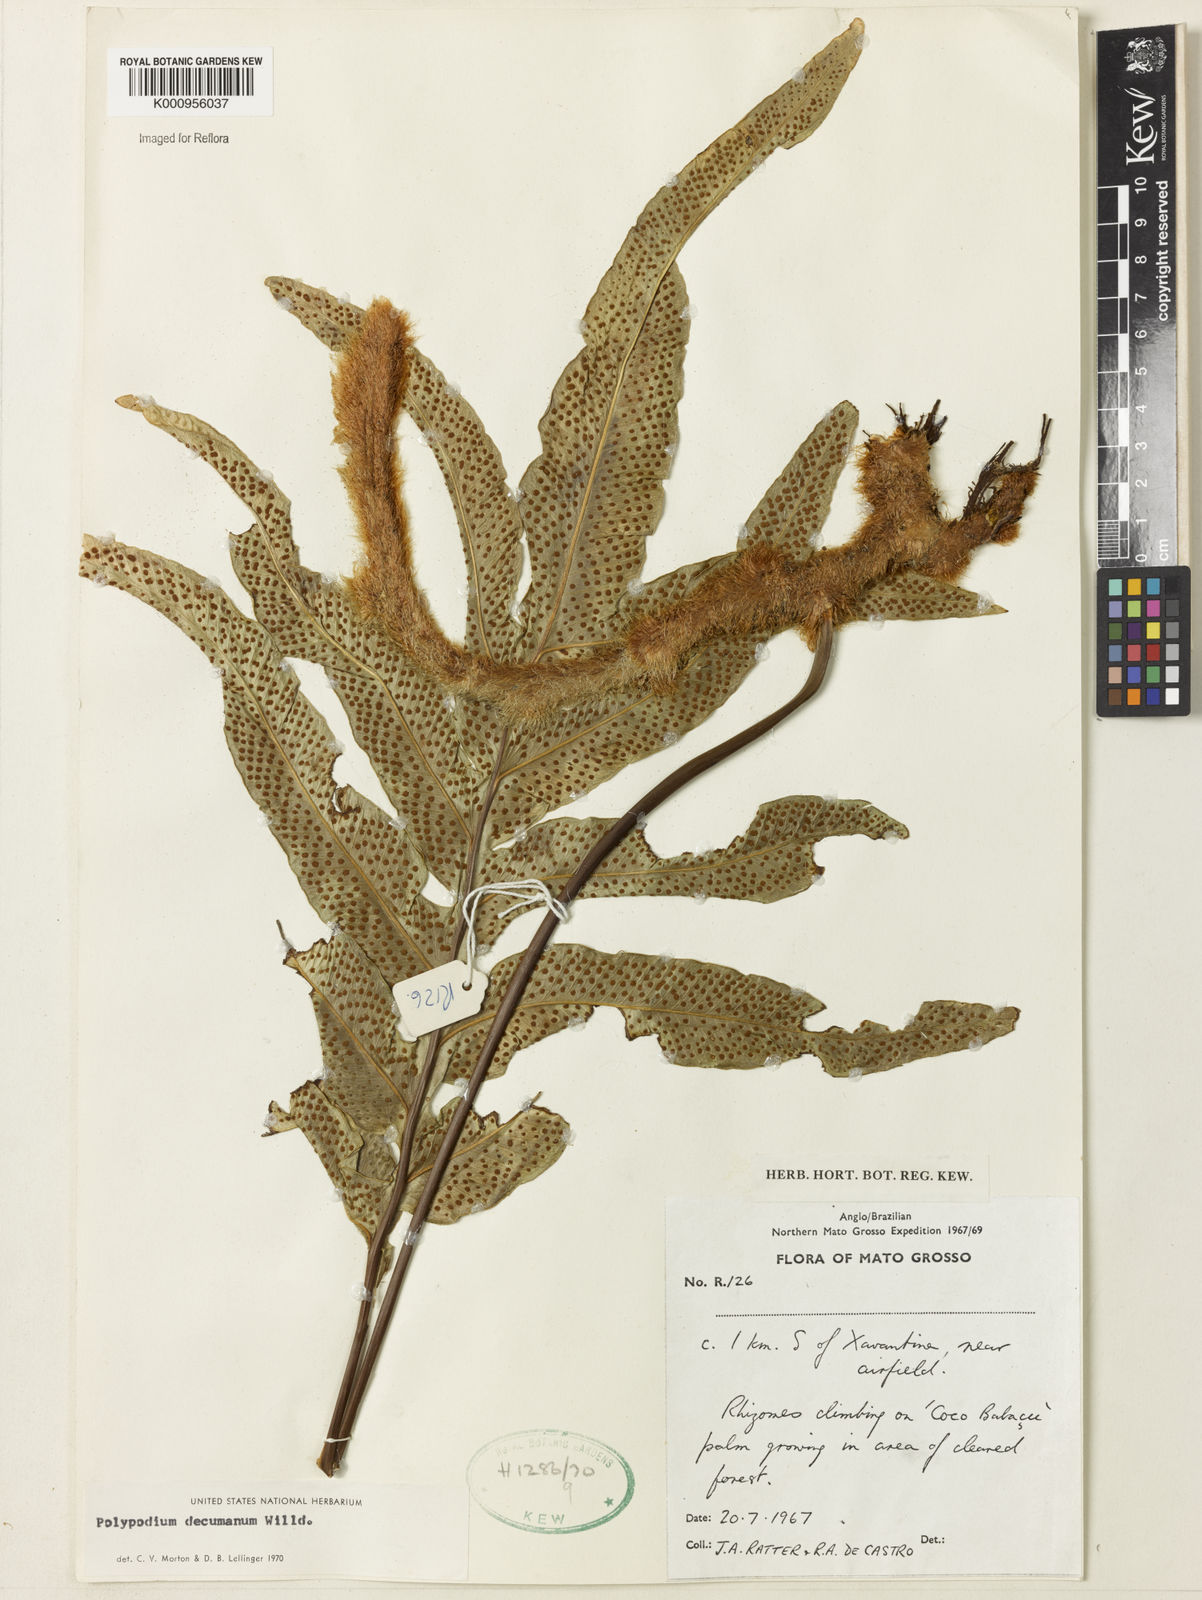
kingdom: Plantae
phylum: Tracheophyta
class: Polypodiopsida
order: Polypodiales
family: Polypodiaceae
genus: Phlebodium
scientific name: Phlebodium decumanum
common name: Golden polypod
